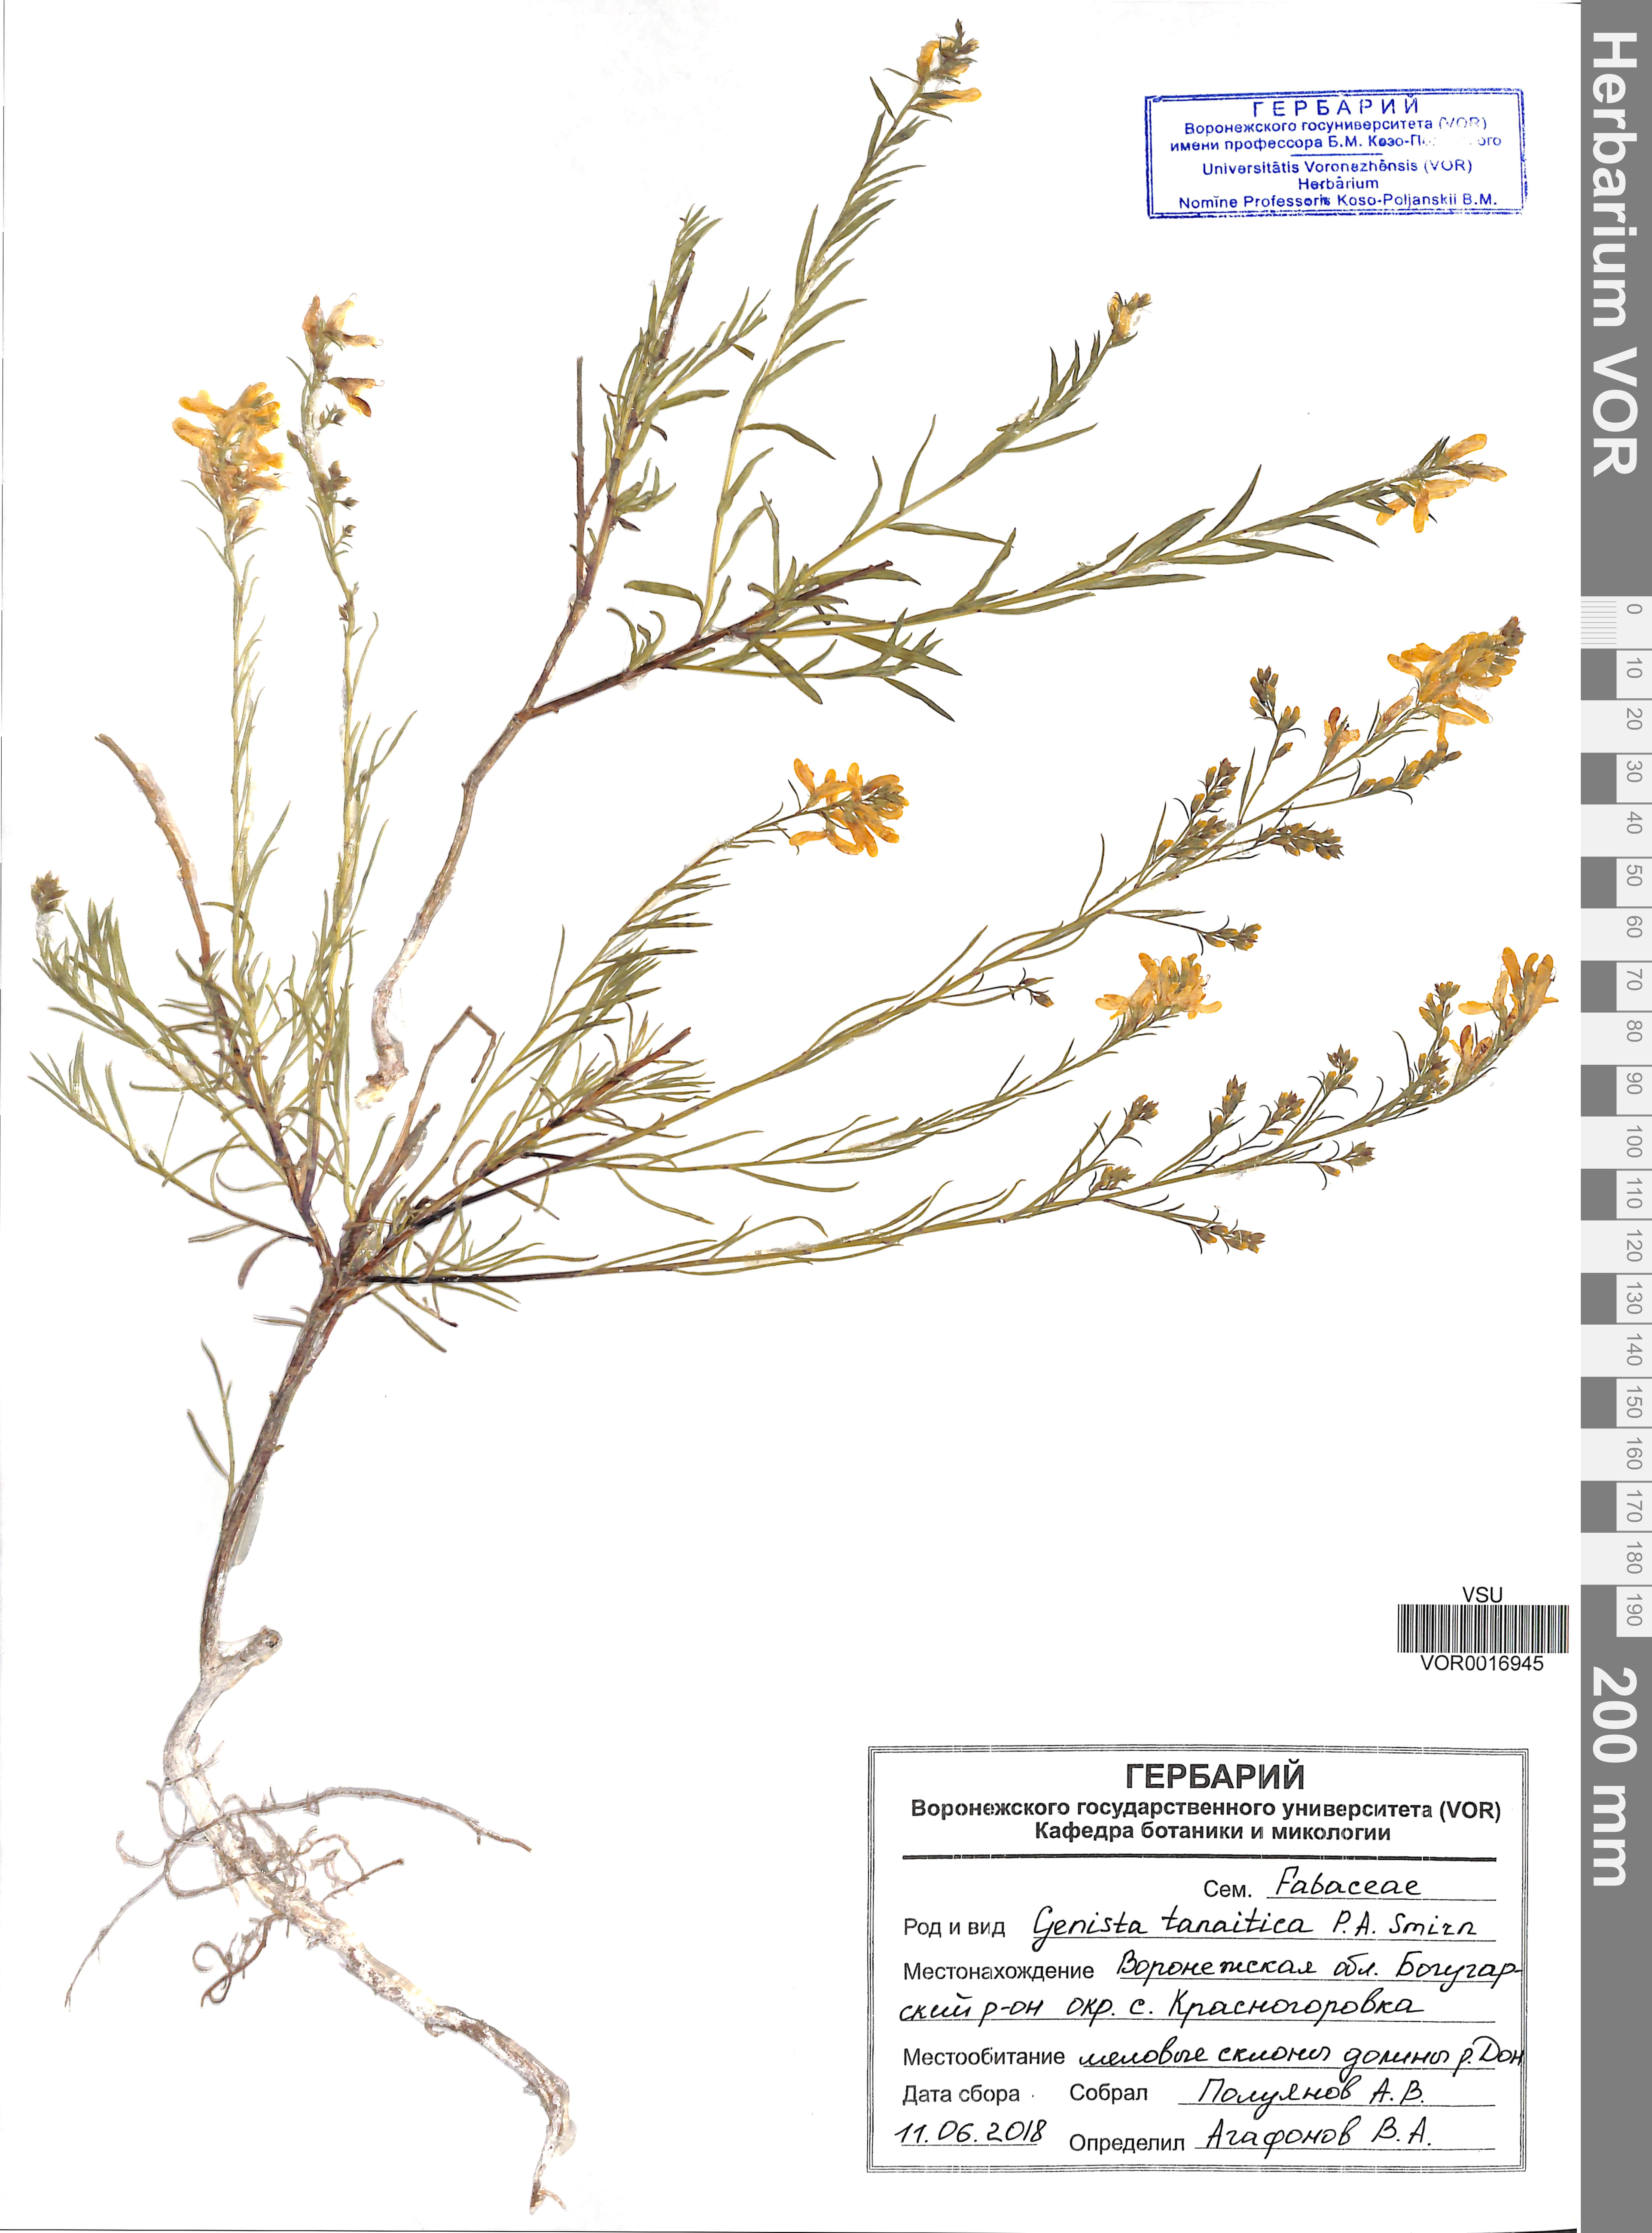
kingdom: Plantae
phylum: Tracheophyta
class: Magnoliopsida
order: Fabales
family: Fabaceae
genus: Genista
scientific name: Genista tinctoria
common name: Dyer's greenweed
